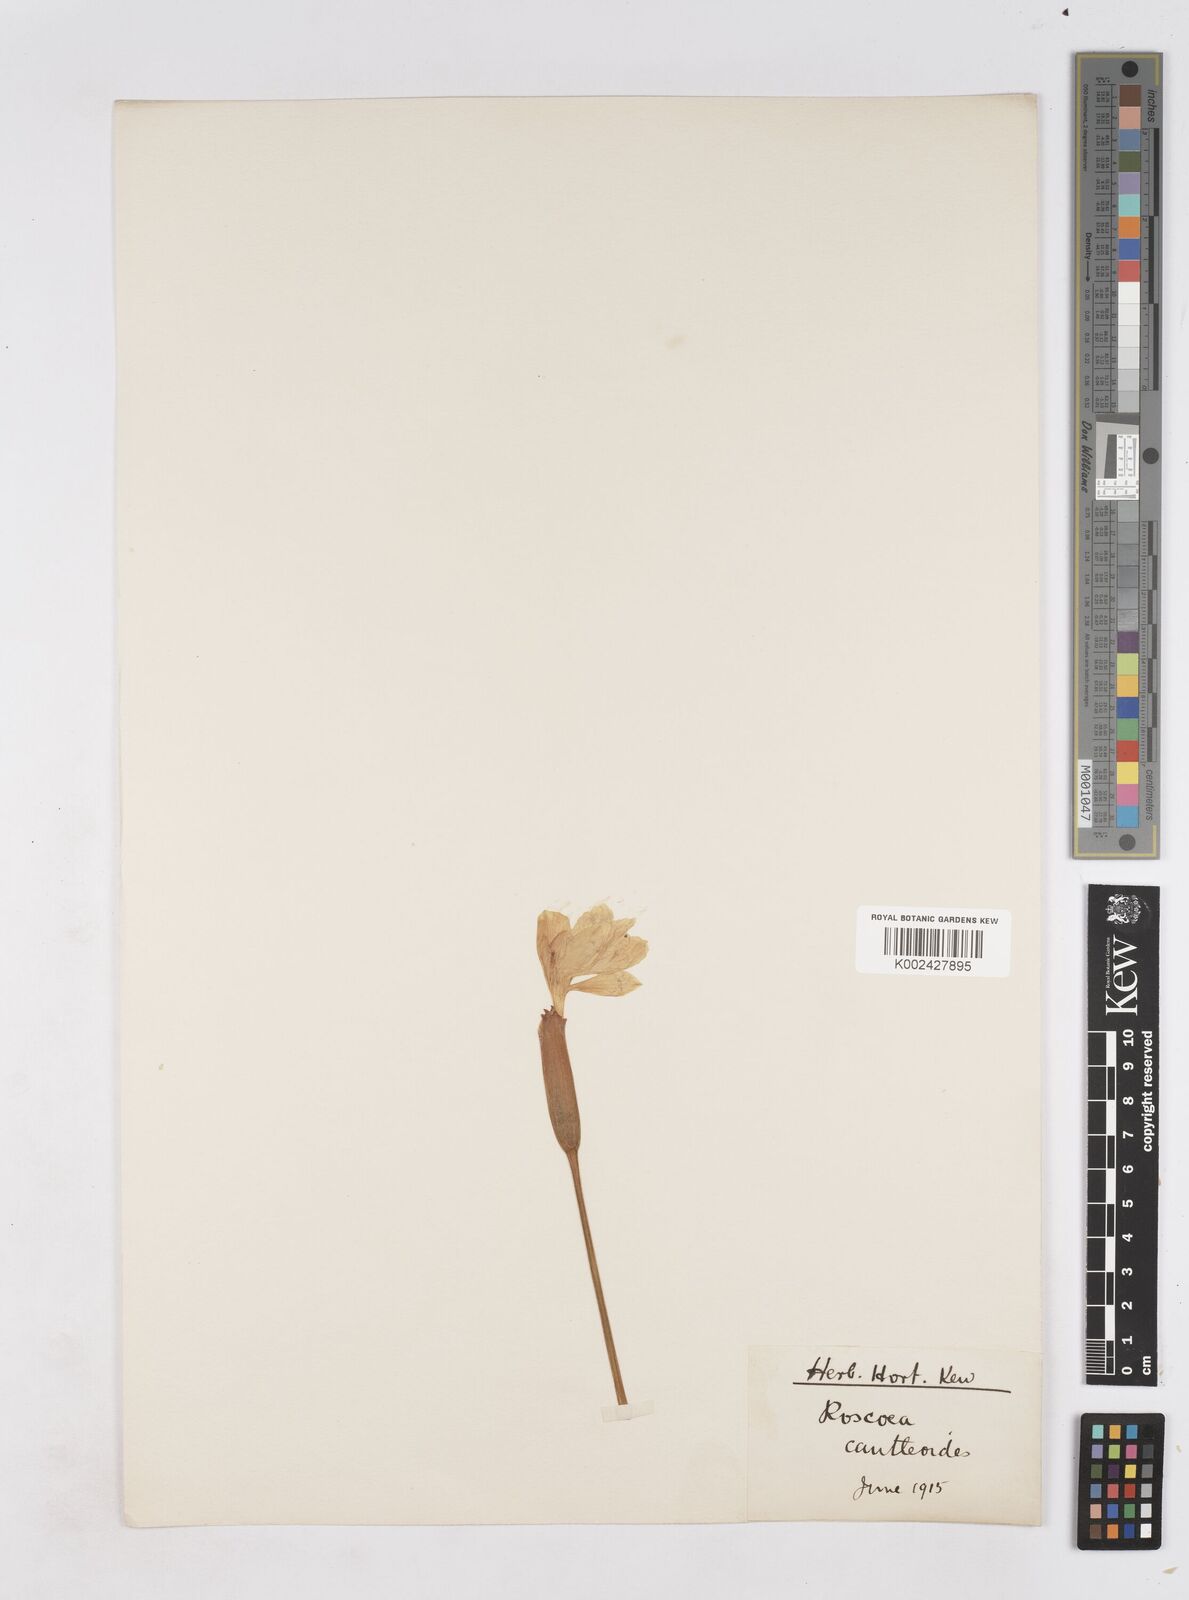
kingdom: Plantae
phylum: Tracheophyta
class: Liliopsida
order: Zingiberales
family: Zingiberaceae
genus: Roscoea
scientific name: Roscoea cautleyoides
